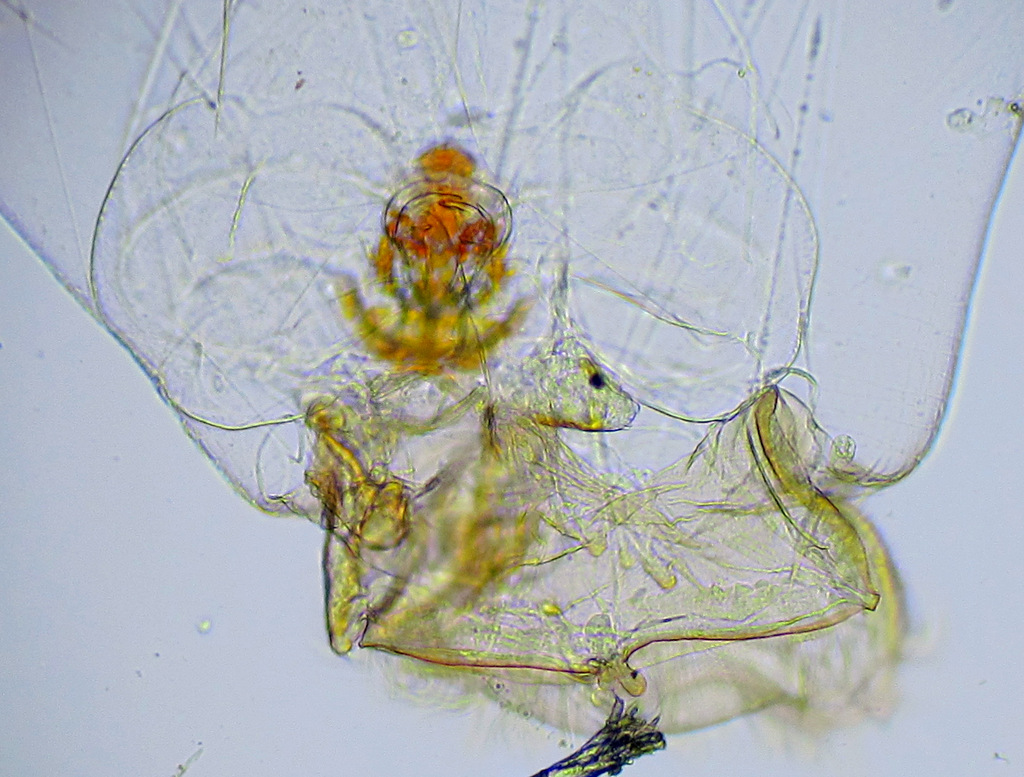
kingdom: Animalia
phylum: Rotifera
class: Eurotatoria
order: Ploima
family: Asplanchnidae
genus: Asplanchna
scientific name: Asplanchna priodonta
